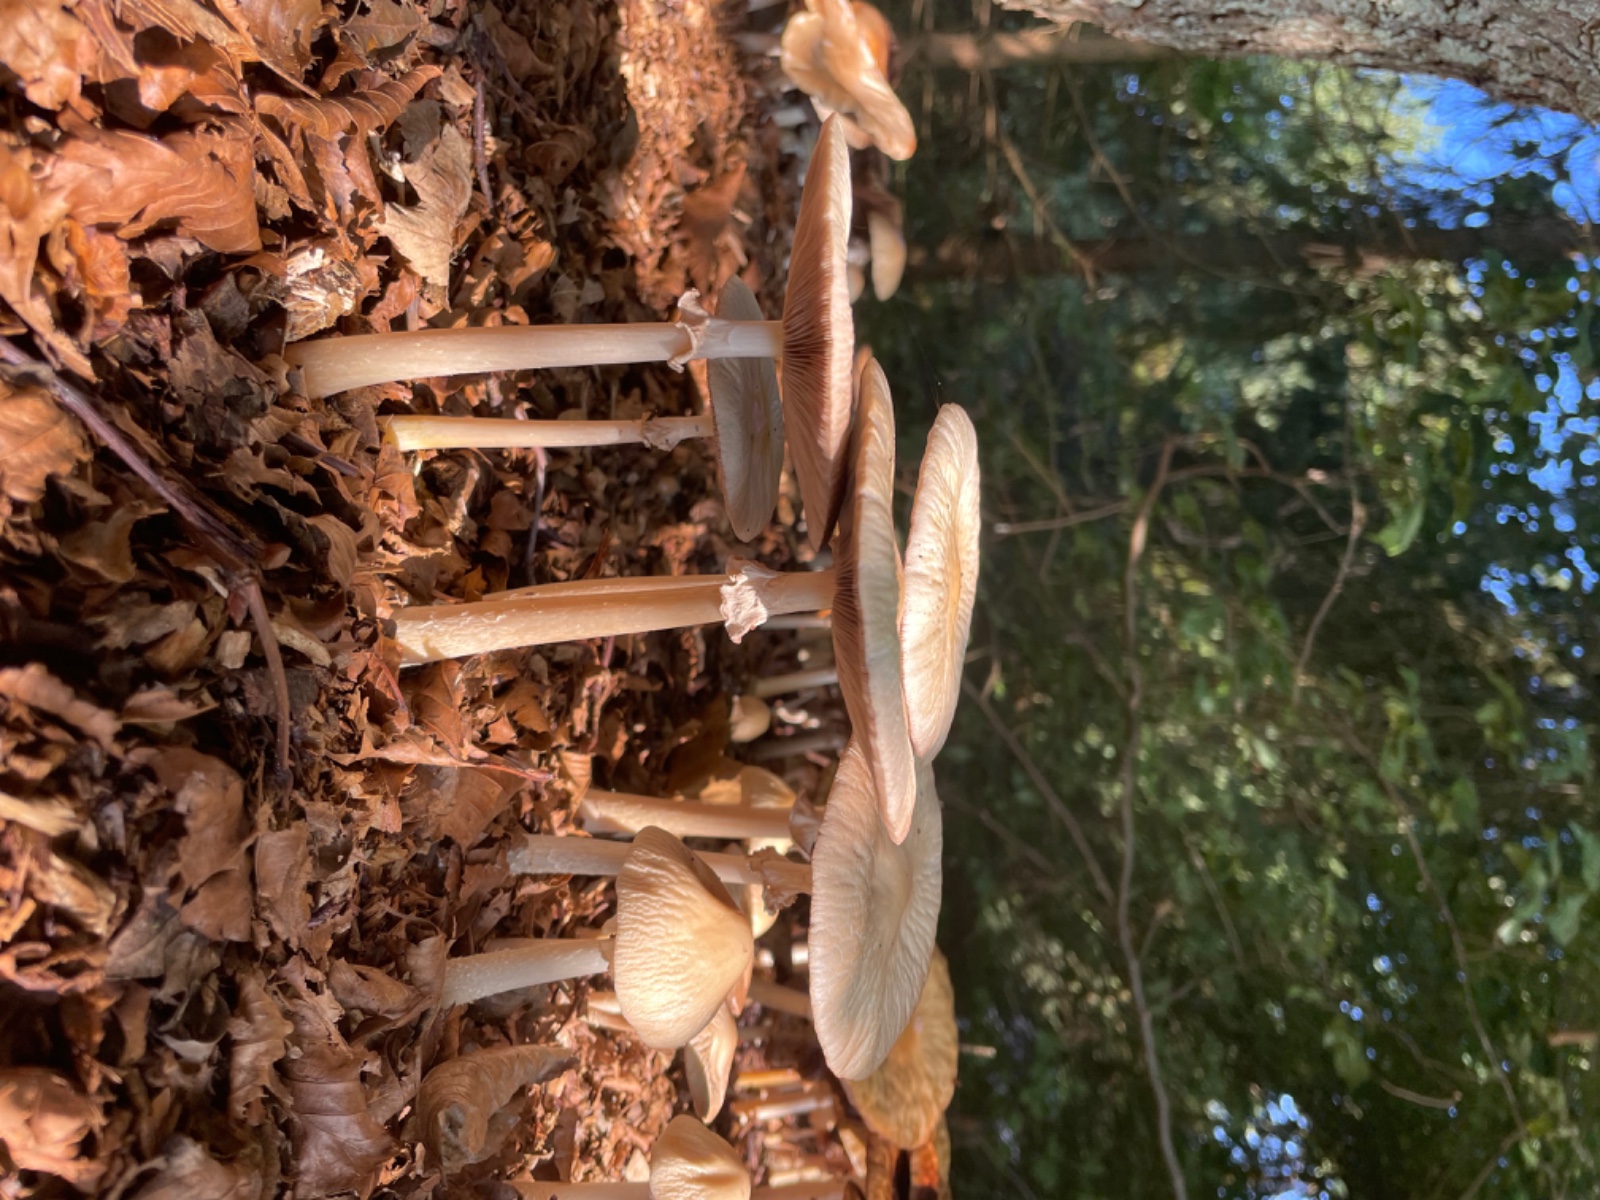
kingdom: Fungi
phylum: Basidiomycota
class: Agaricomycetes
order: Agaricales
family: Strophariaceae
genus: Agrocybe
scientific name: Agrocybe rivulosa
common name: året agerhat
